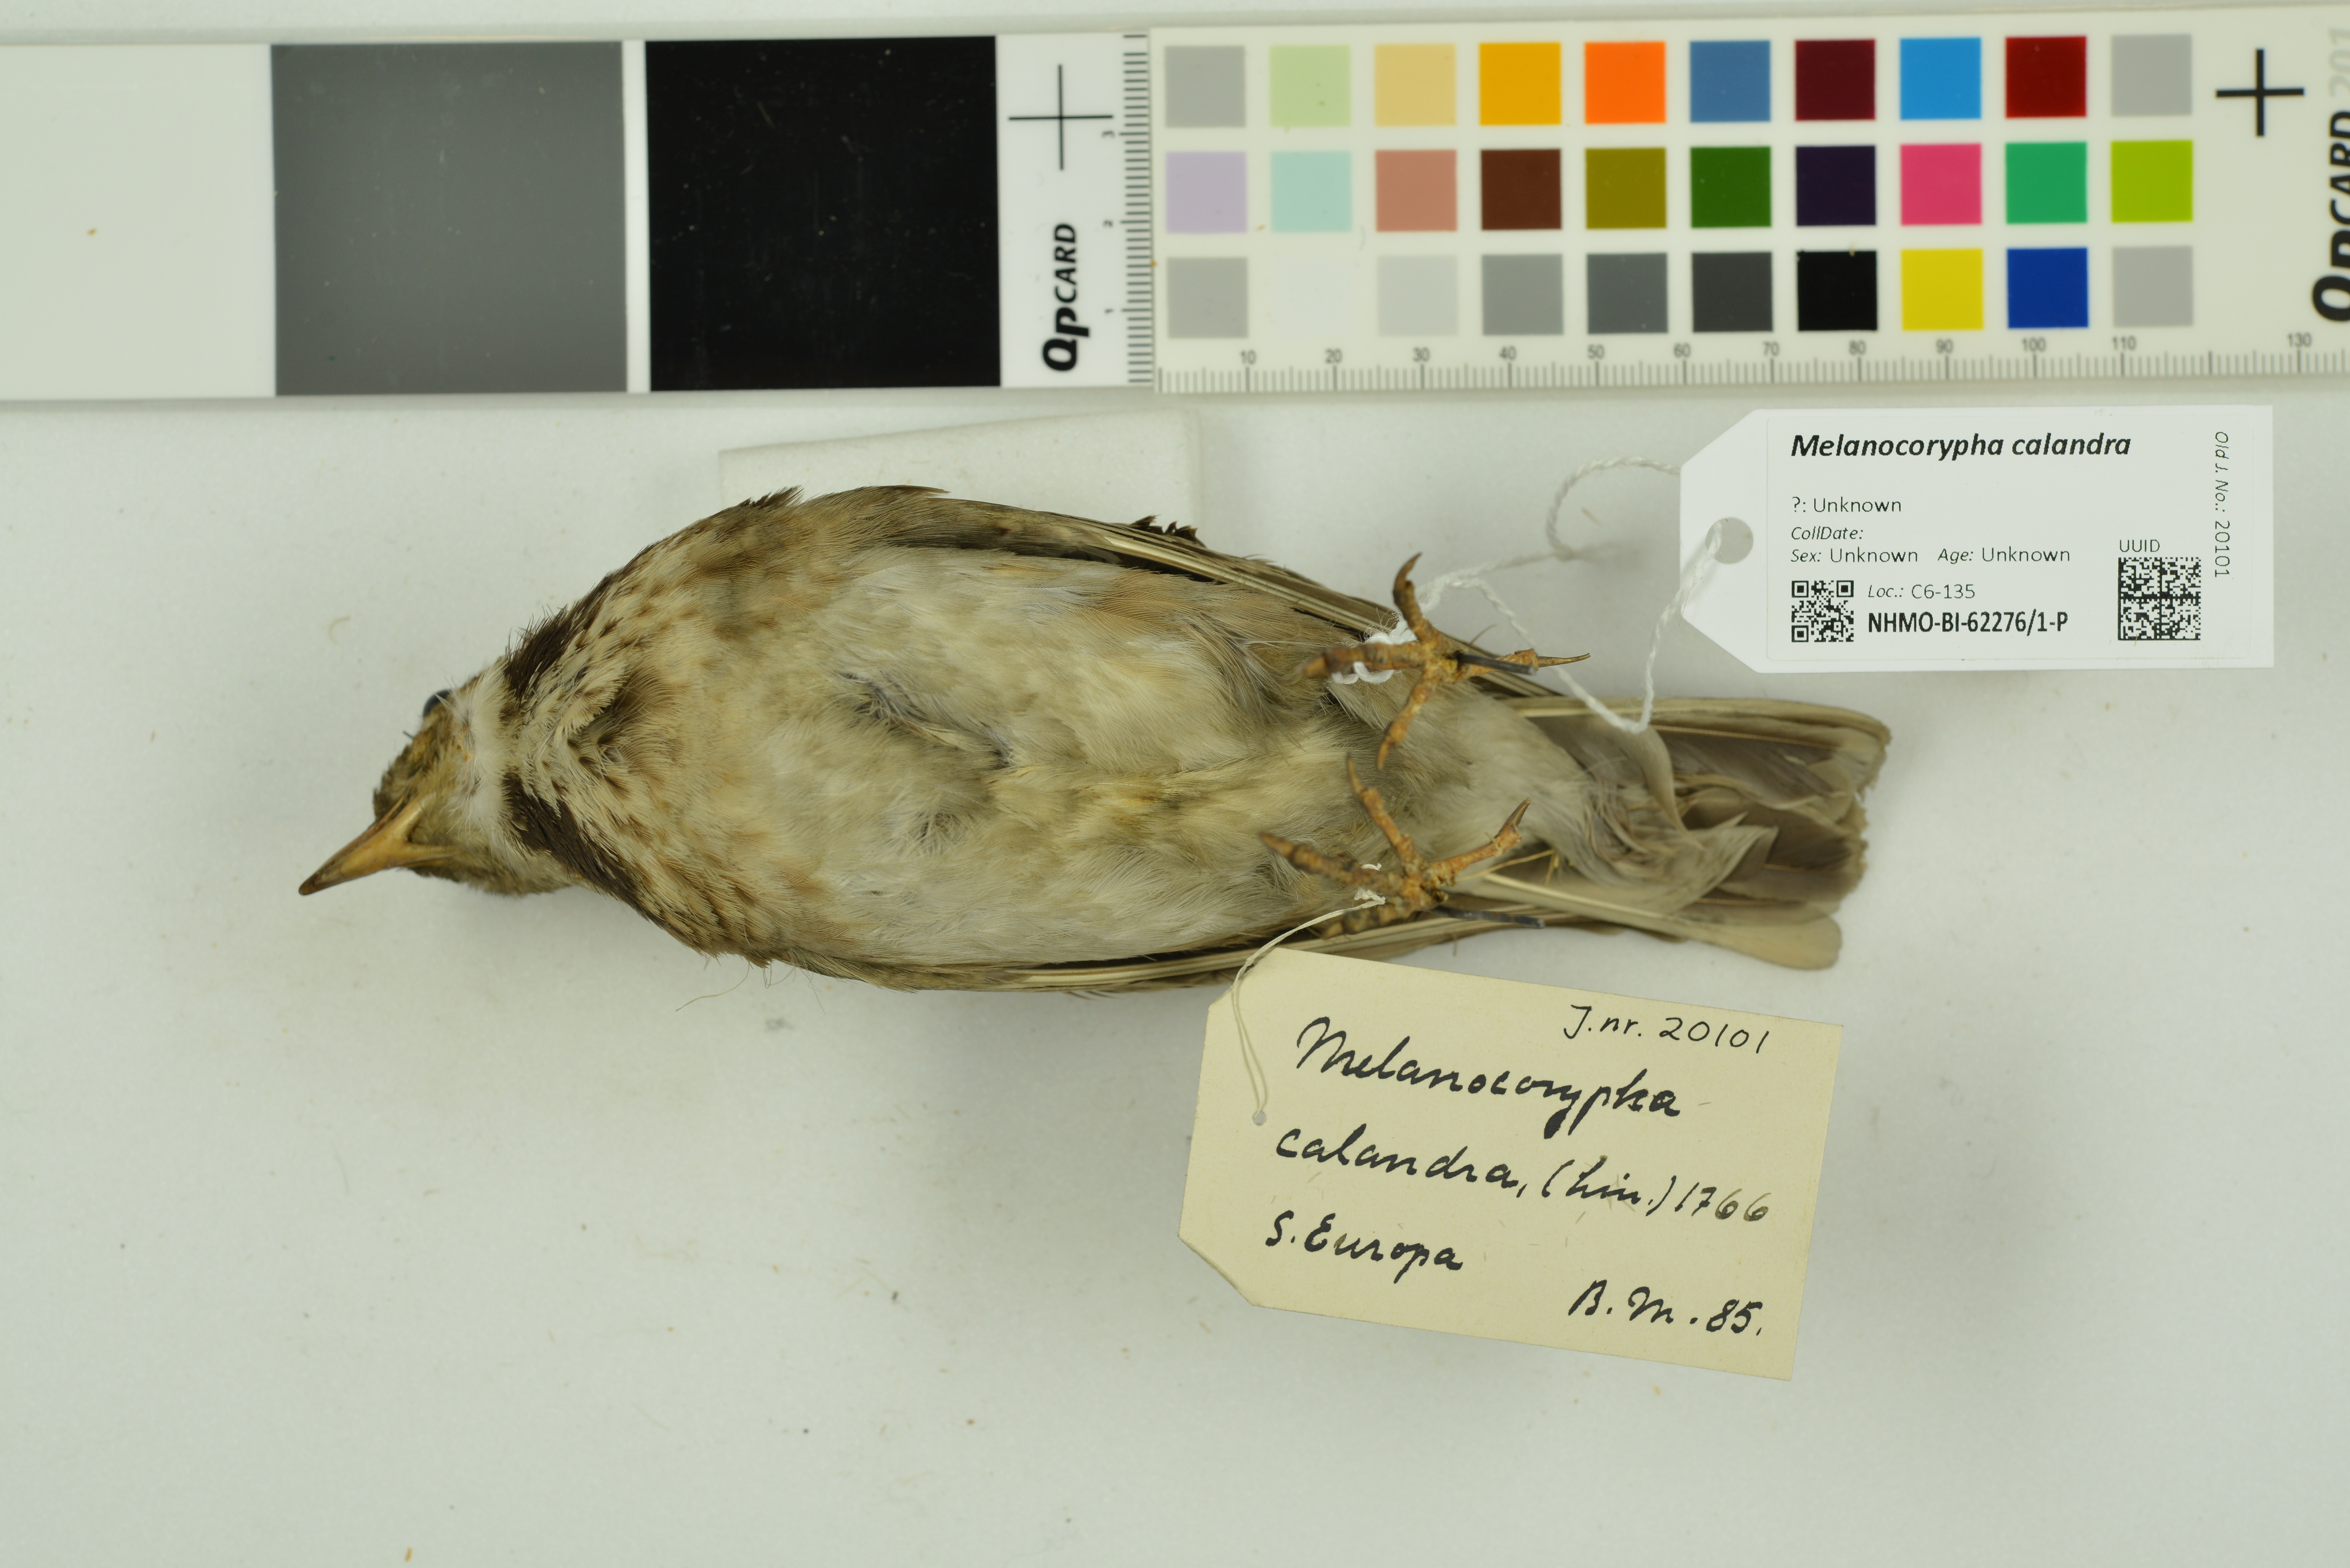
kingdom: Animalia
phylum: Chordata
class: Aves
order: Passeriformes
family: Alaudidae
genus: Melanocorypha
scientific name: Melanocorypha calandra
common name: Calandra lark
